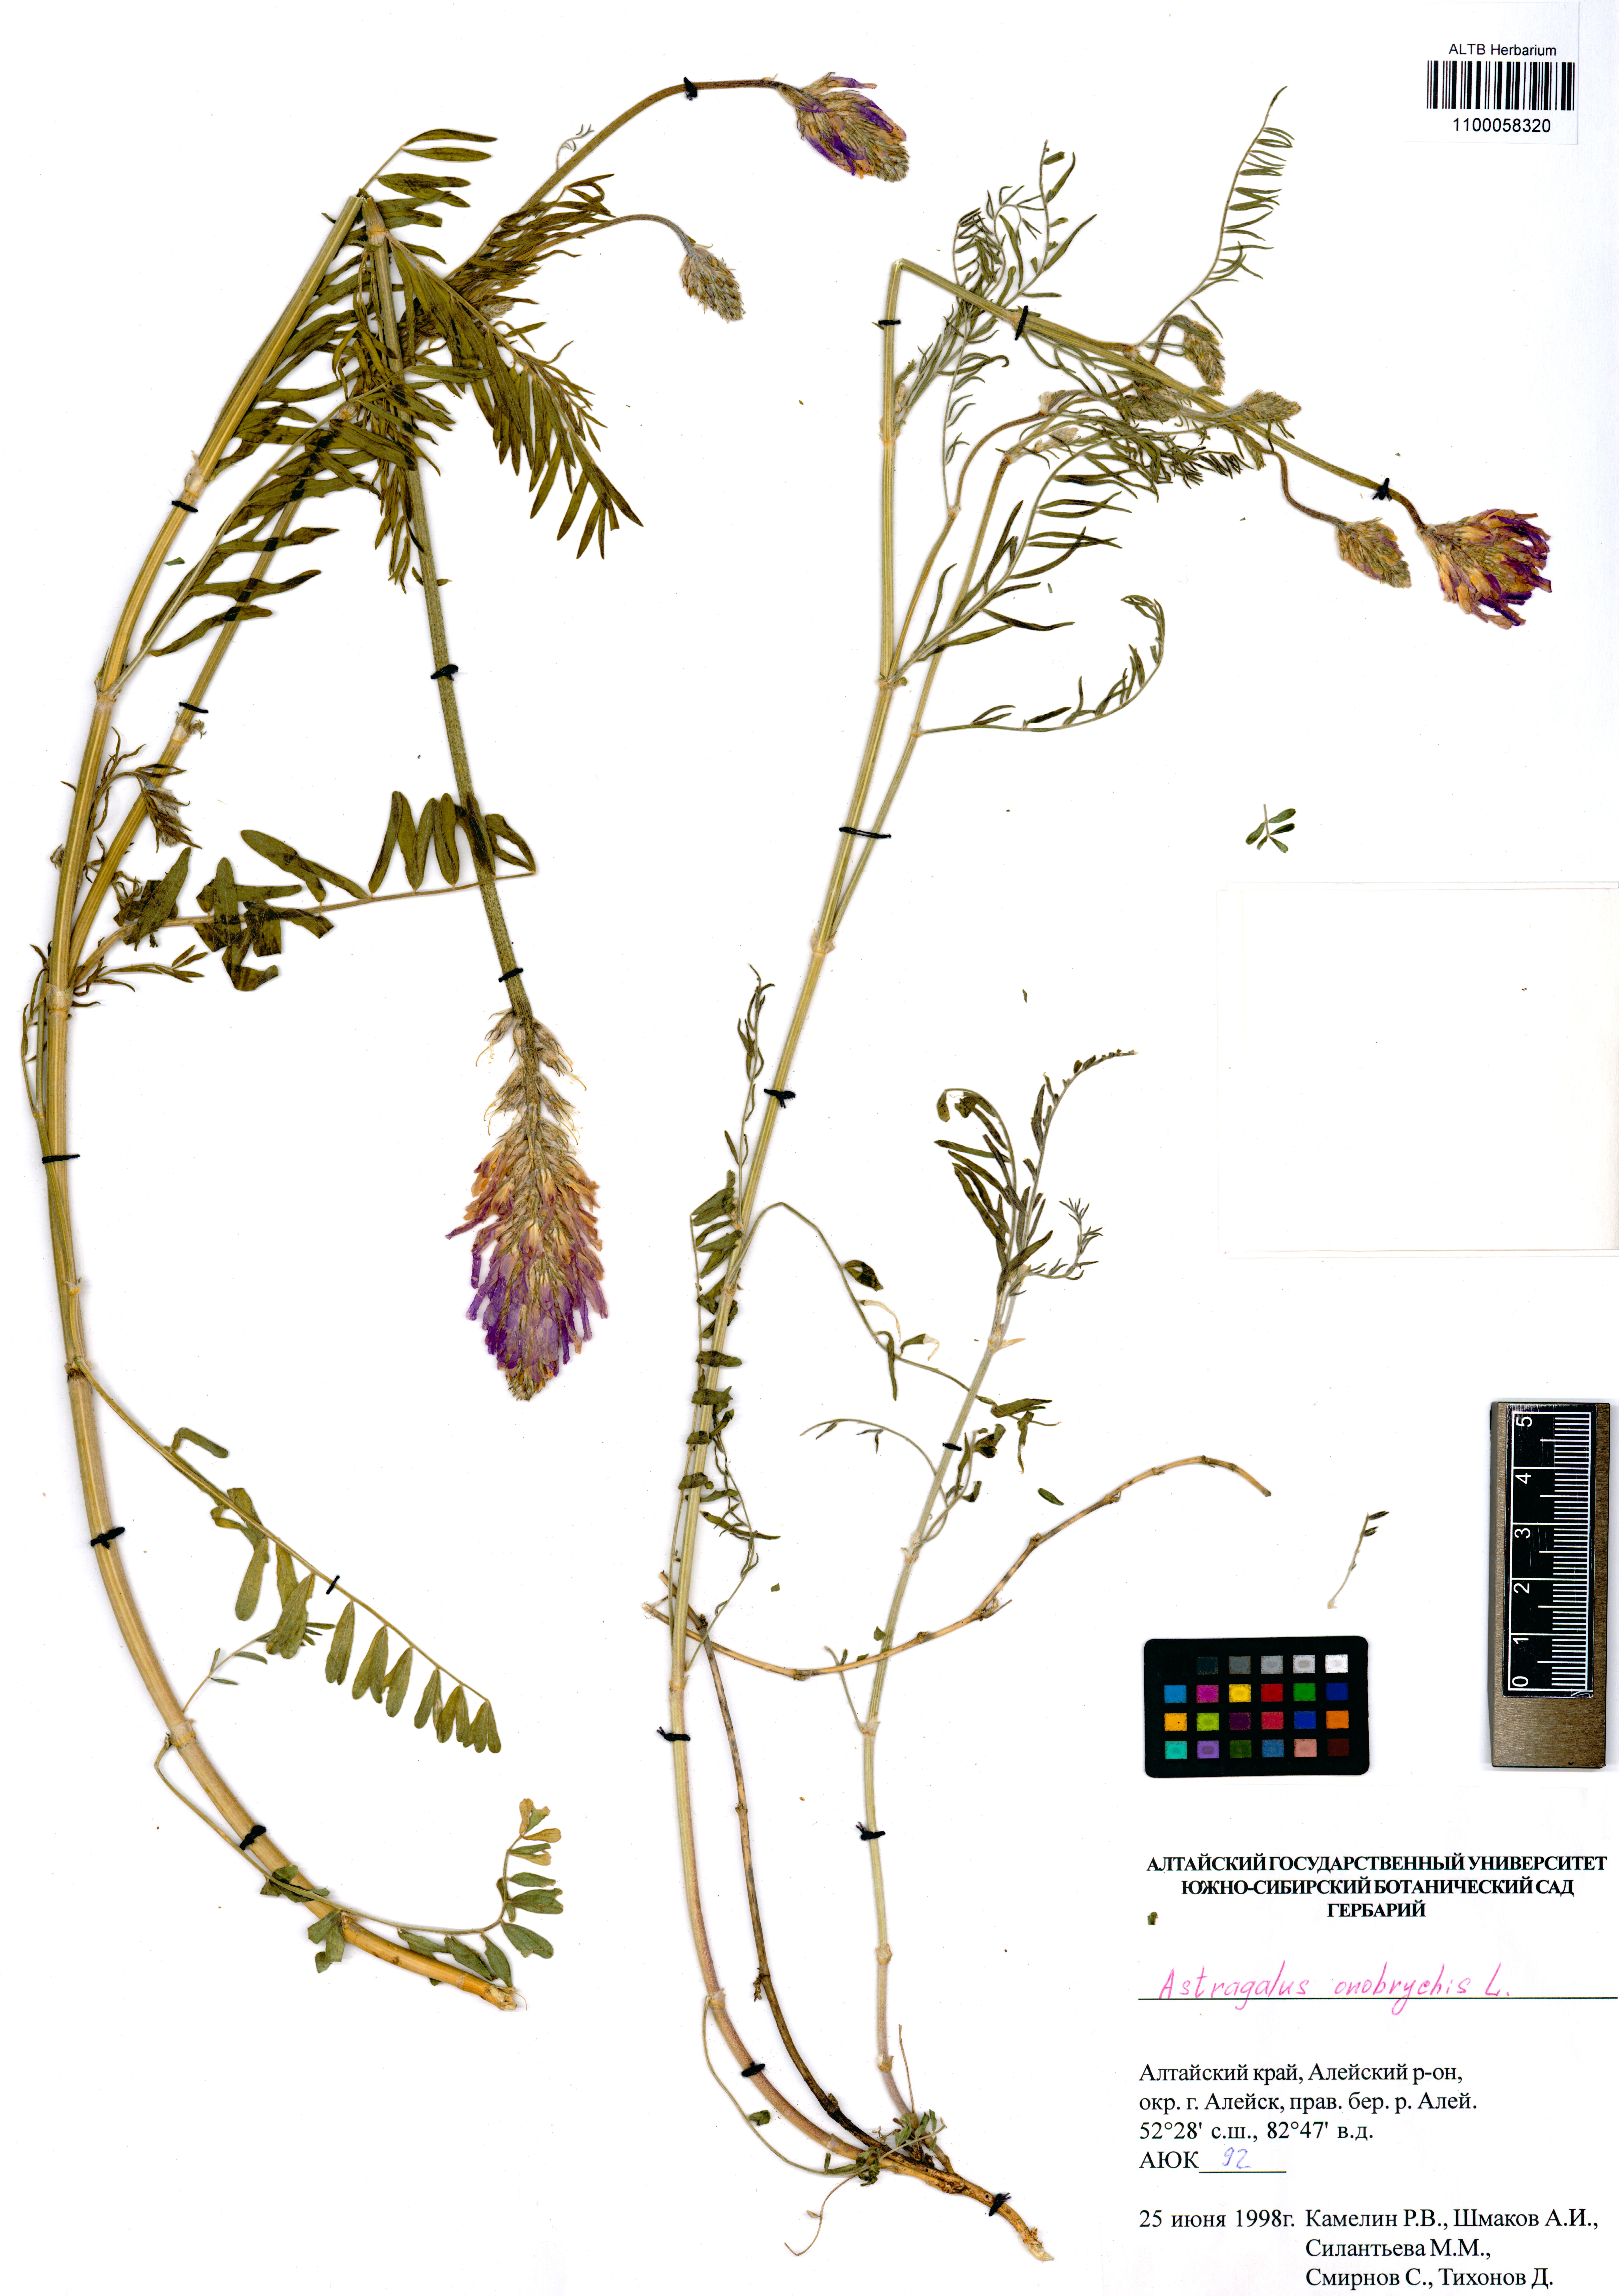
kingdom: Plantae
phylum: Tracheophyta
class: Magnoliopsida
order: Fabales
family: Fabaceae
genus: Astragalus
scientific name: Astragalus onobrychis
